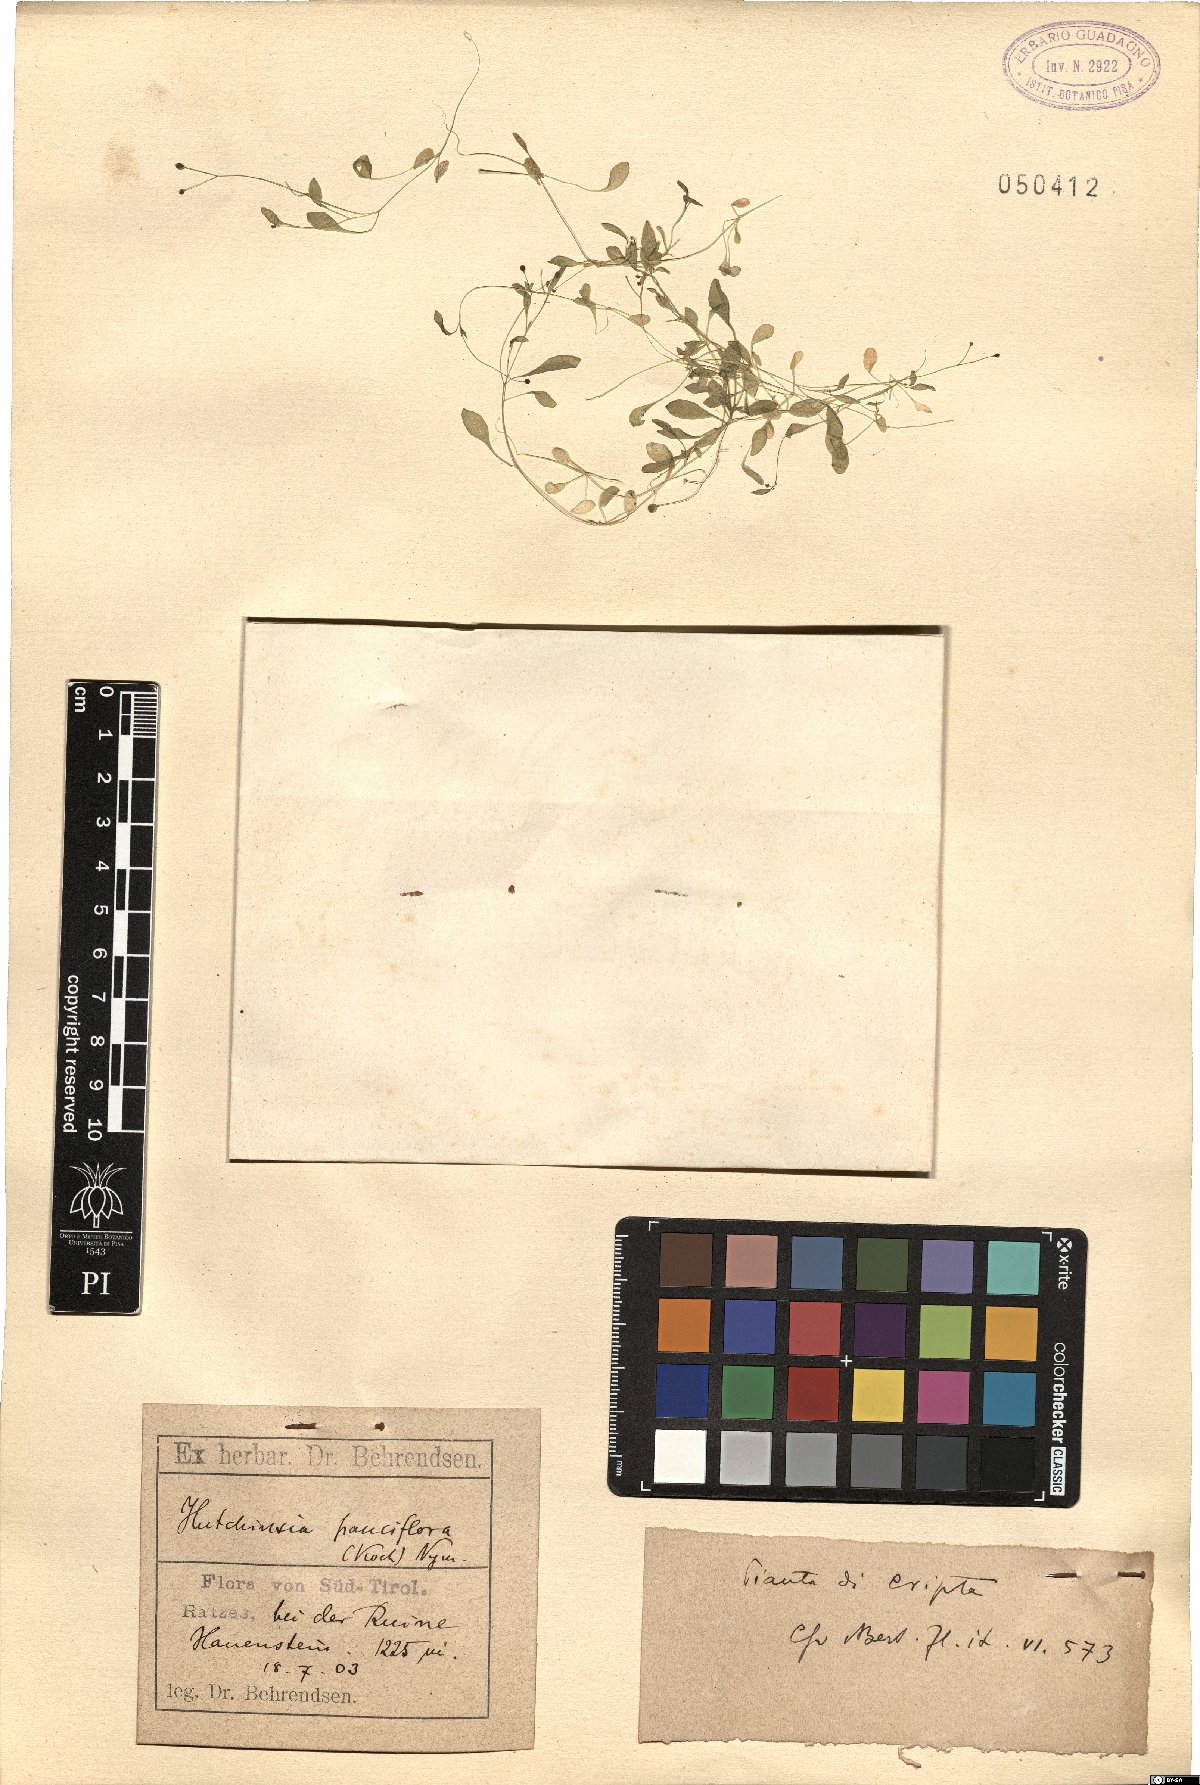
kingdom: Plantae
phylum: Tracheophyta
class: Magnoliopsida
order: Brassicales
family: Brassicaceae
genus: Hornungia
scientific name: Hornungia procumbens
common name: Oval purse
